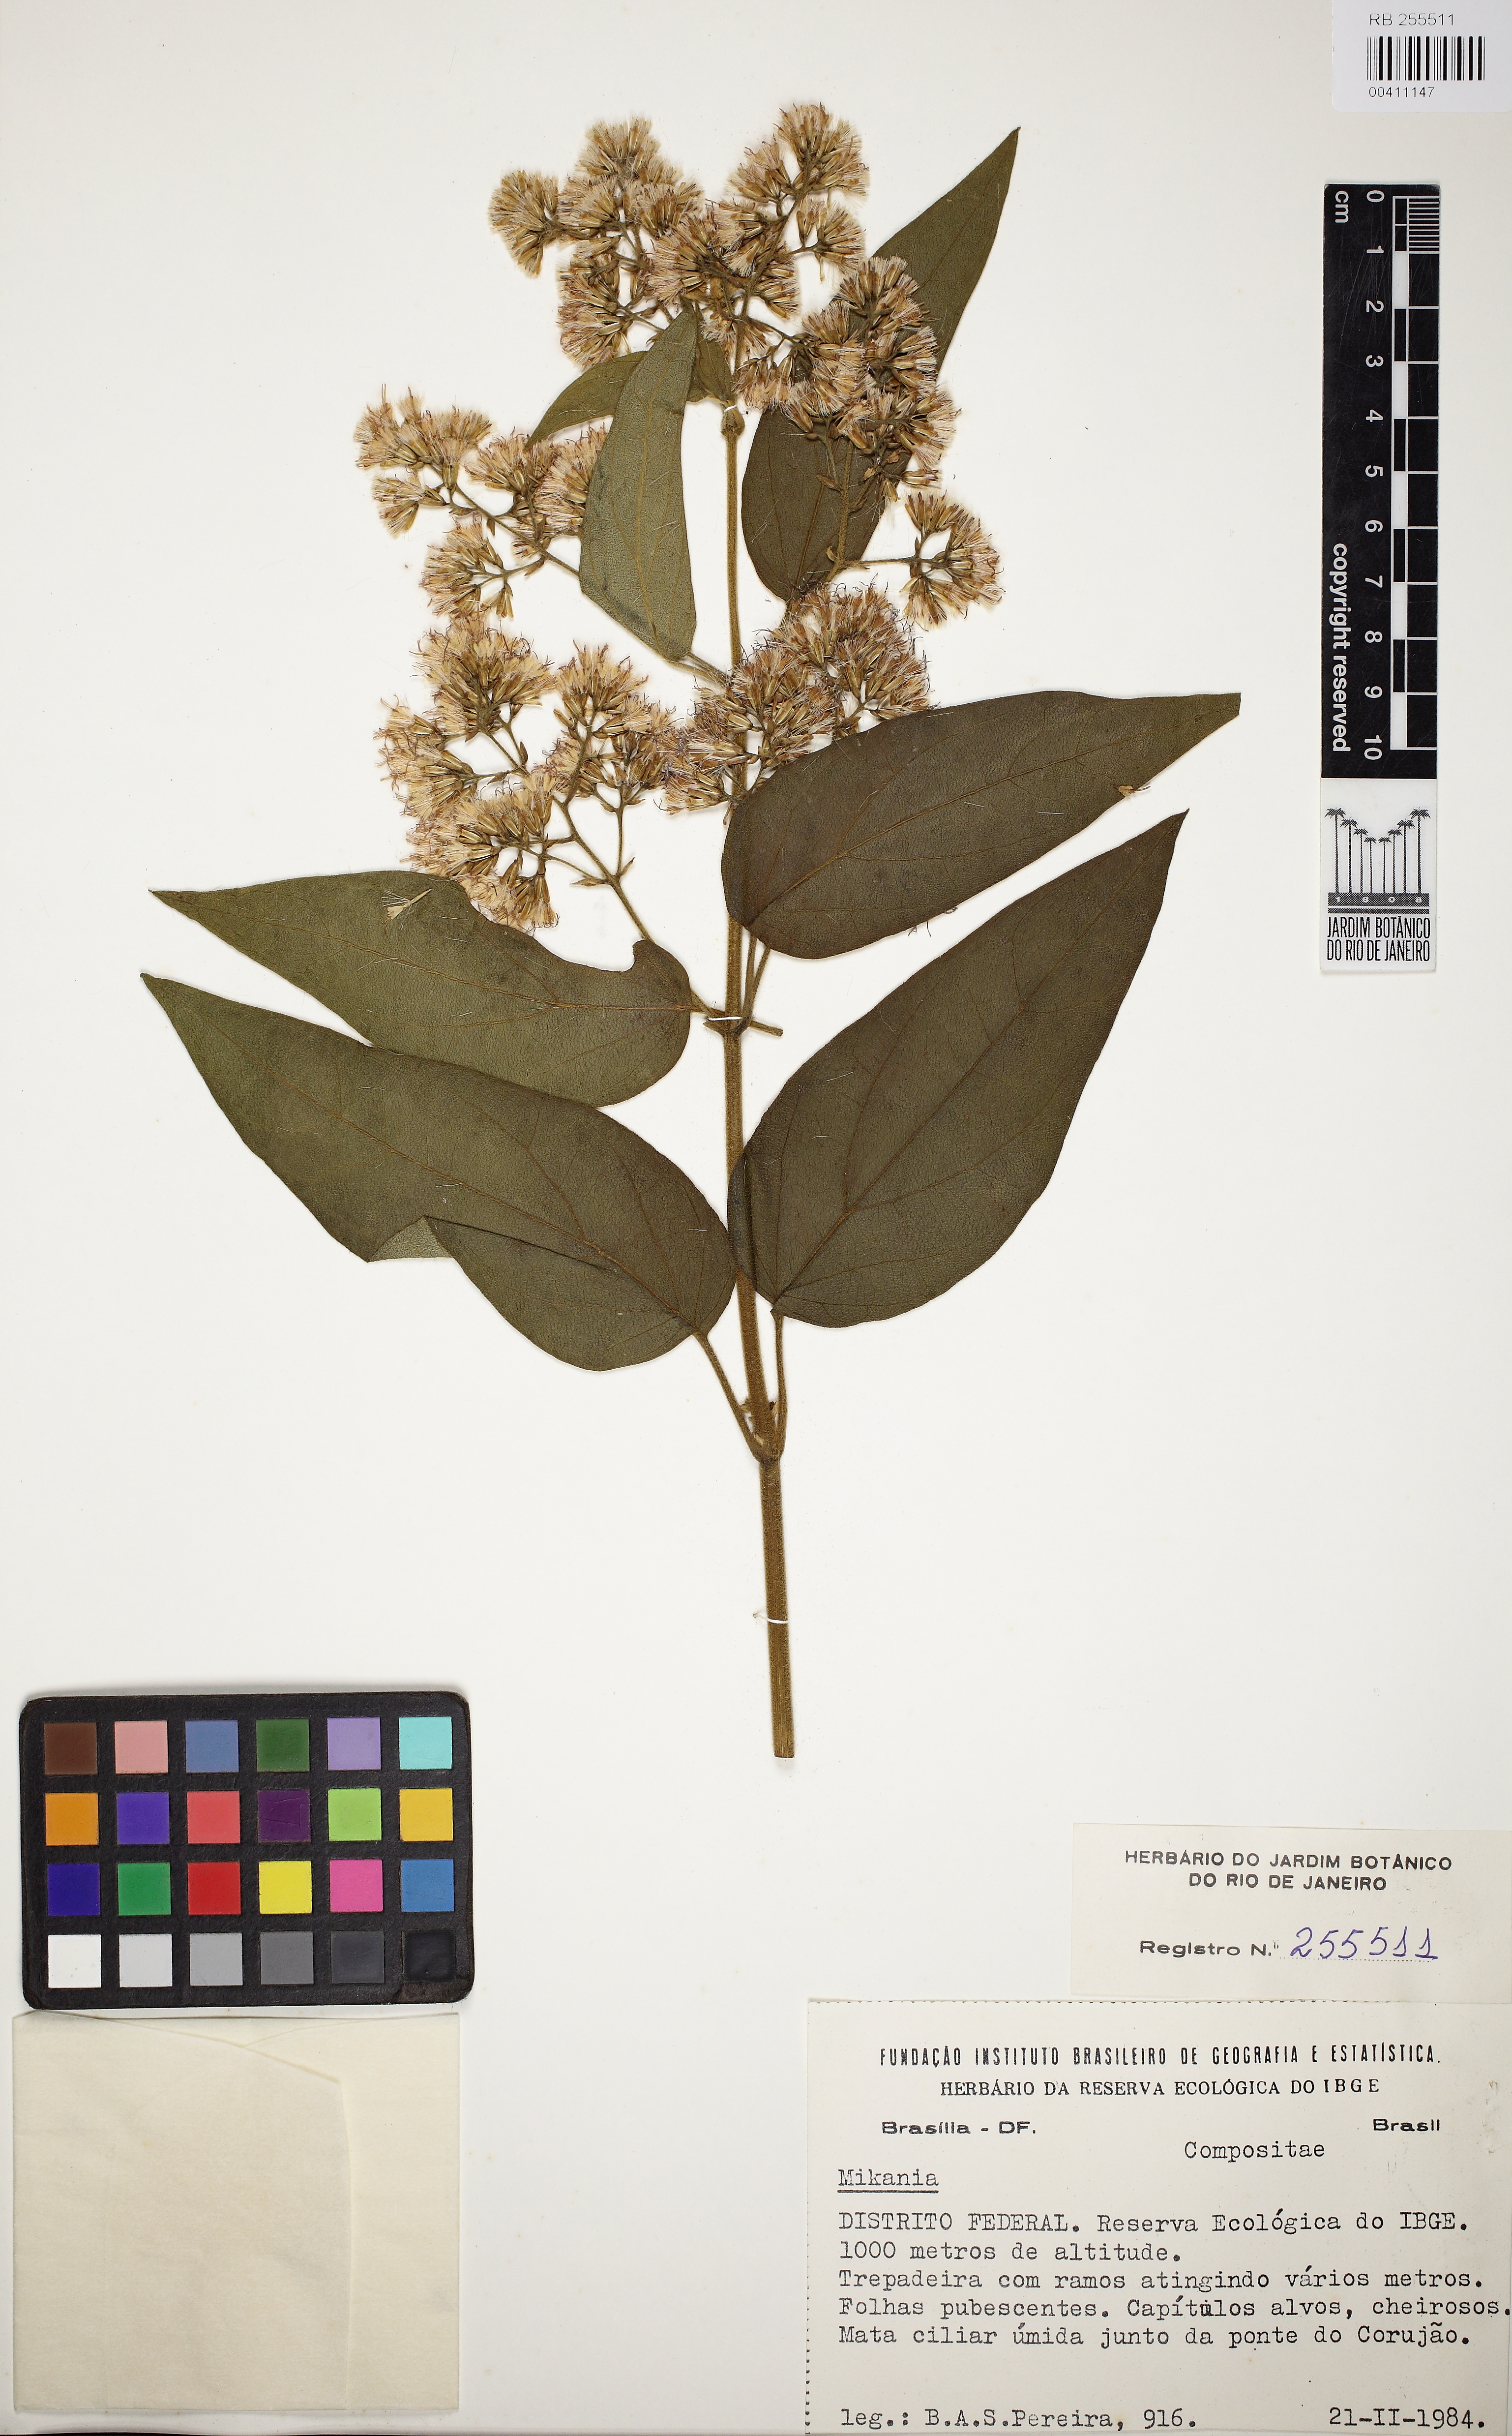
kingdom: Plantae
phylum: Tracheophyta
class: Magnoliopsida
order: Asterales
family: Asteraceae
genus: Mikania
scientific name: Mikania argyreiae
